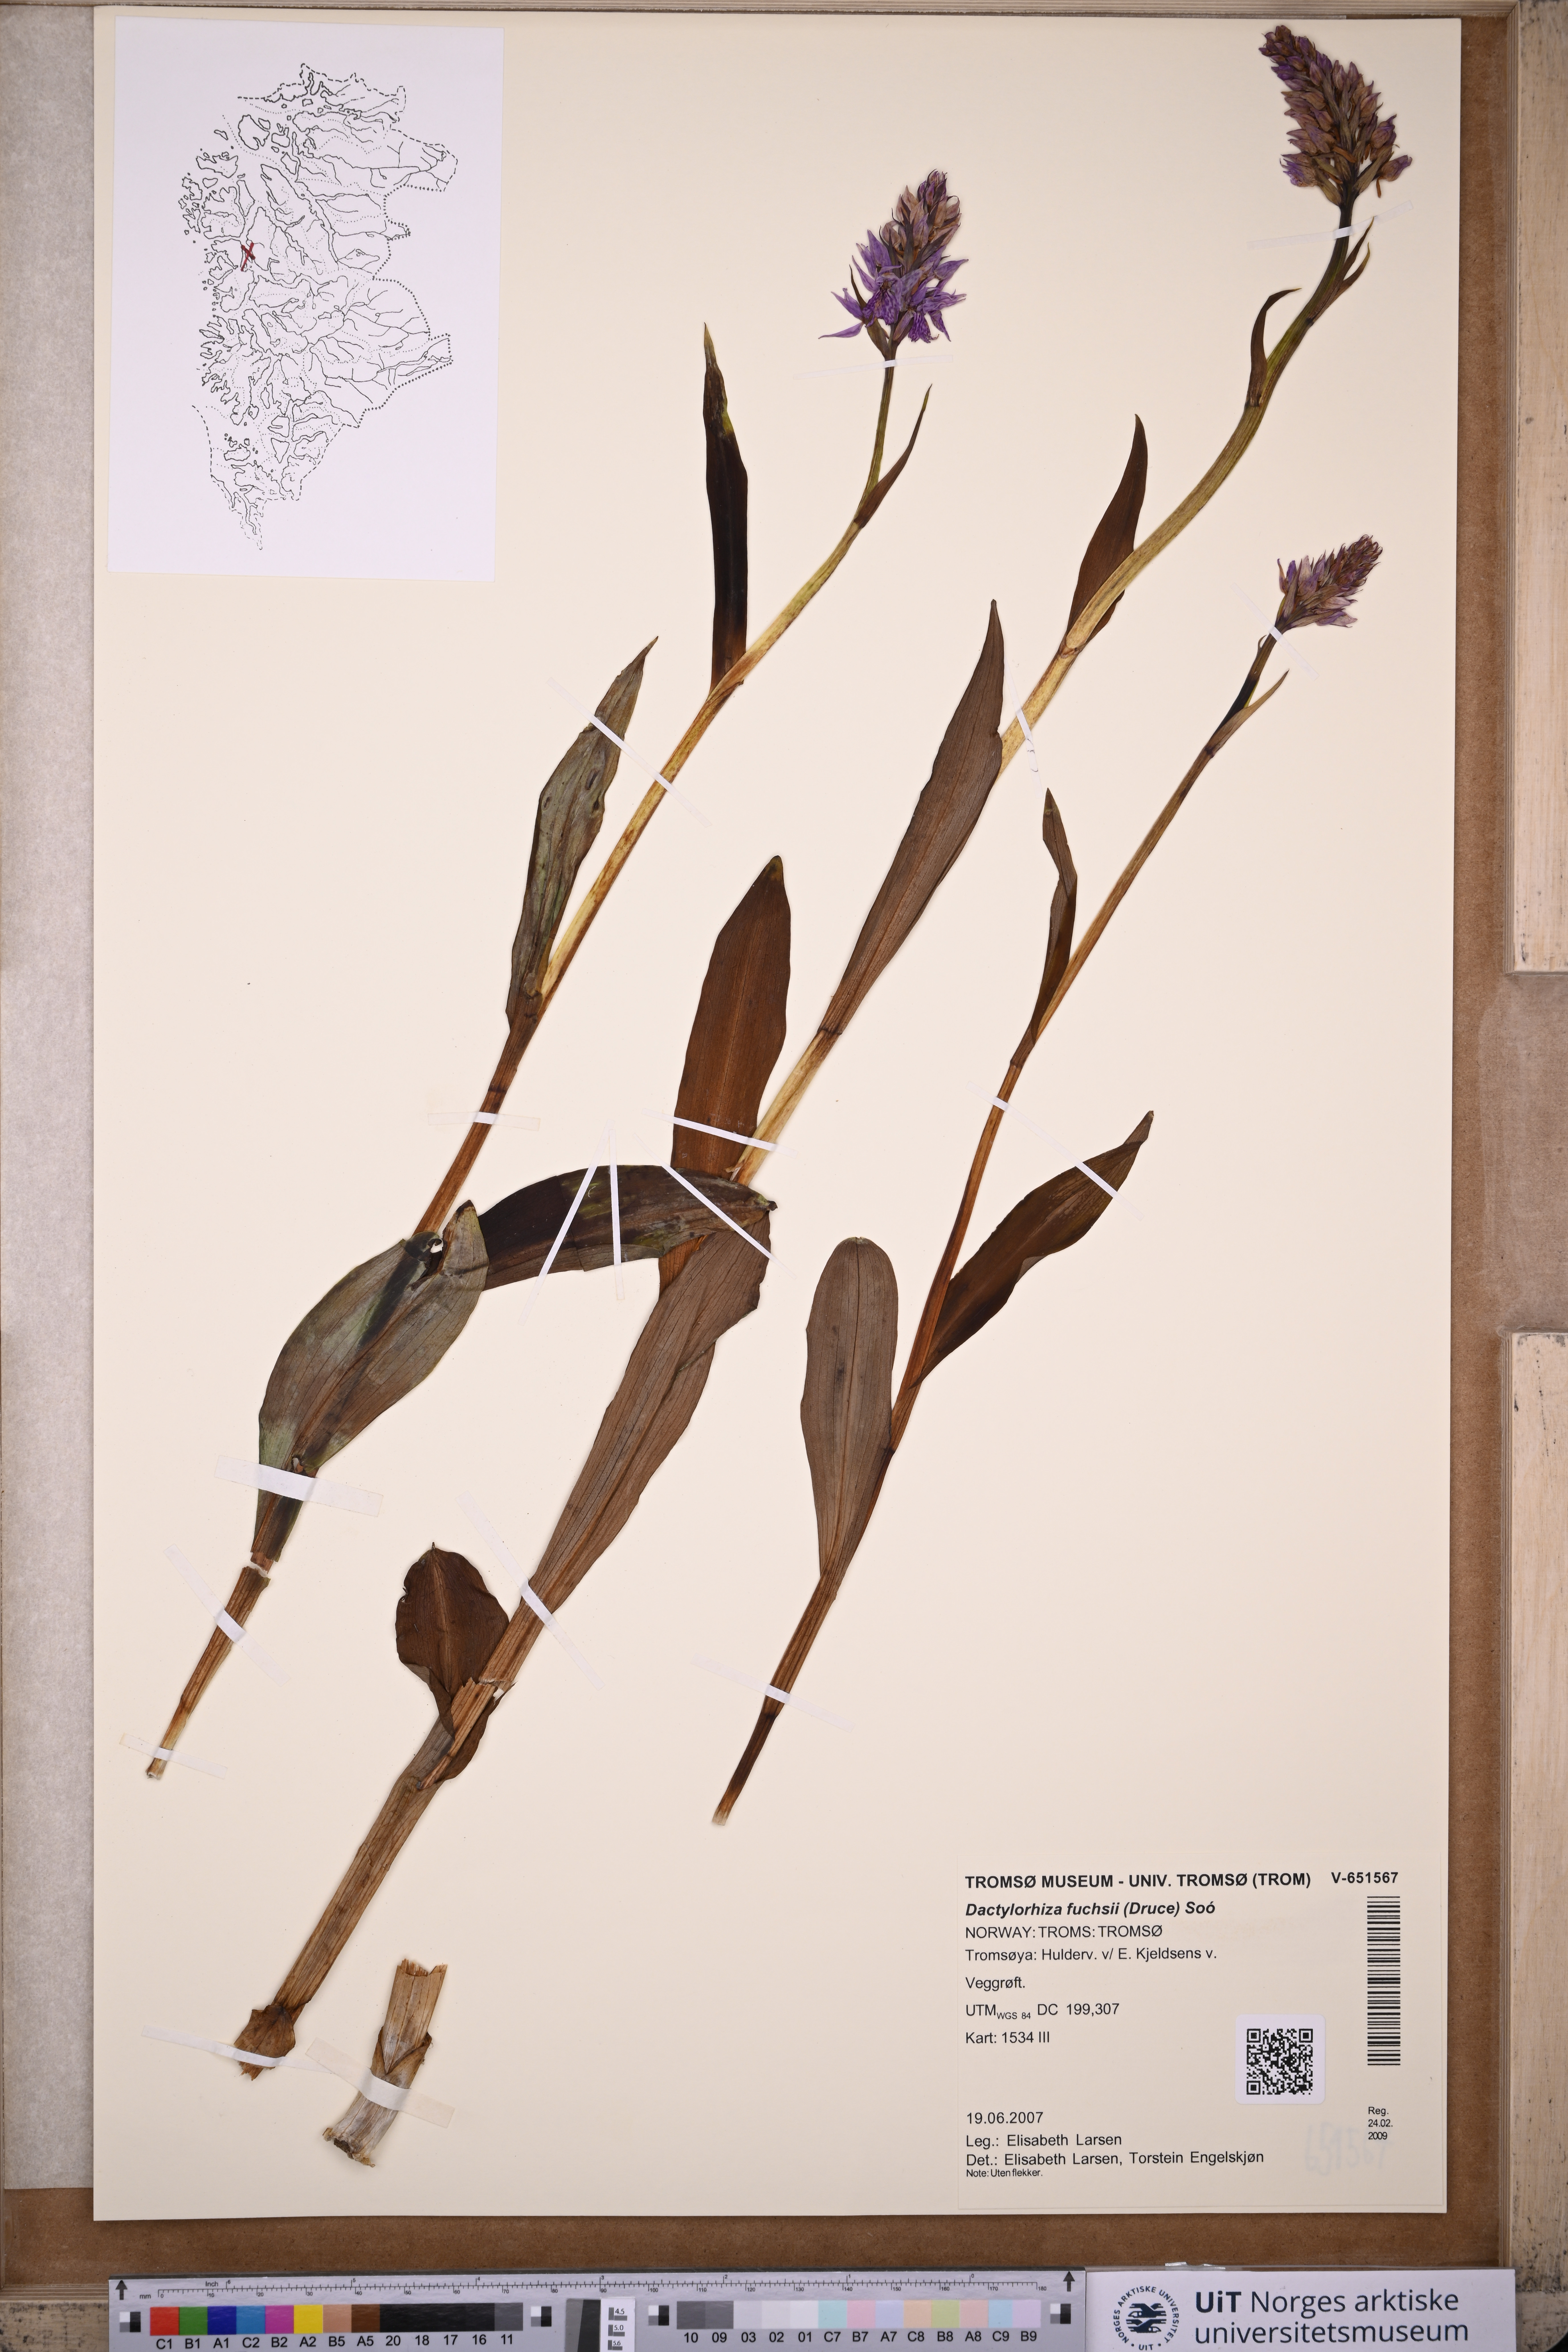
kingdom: Plantae
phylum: Tracheophyta
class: Liliopsida
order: Asparagales
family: Orchidaceae
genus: Dactylorhiza
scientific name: Dactylorhiza maculata
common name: Heath spotted-orchid
